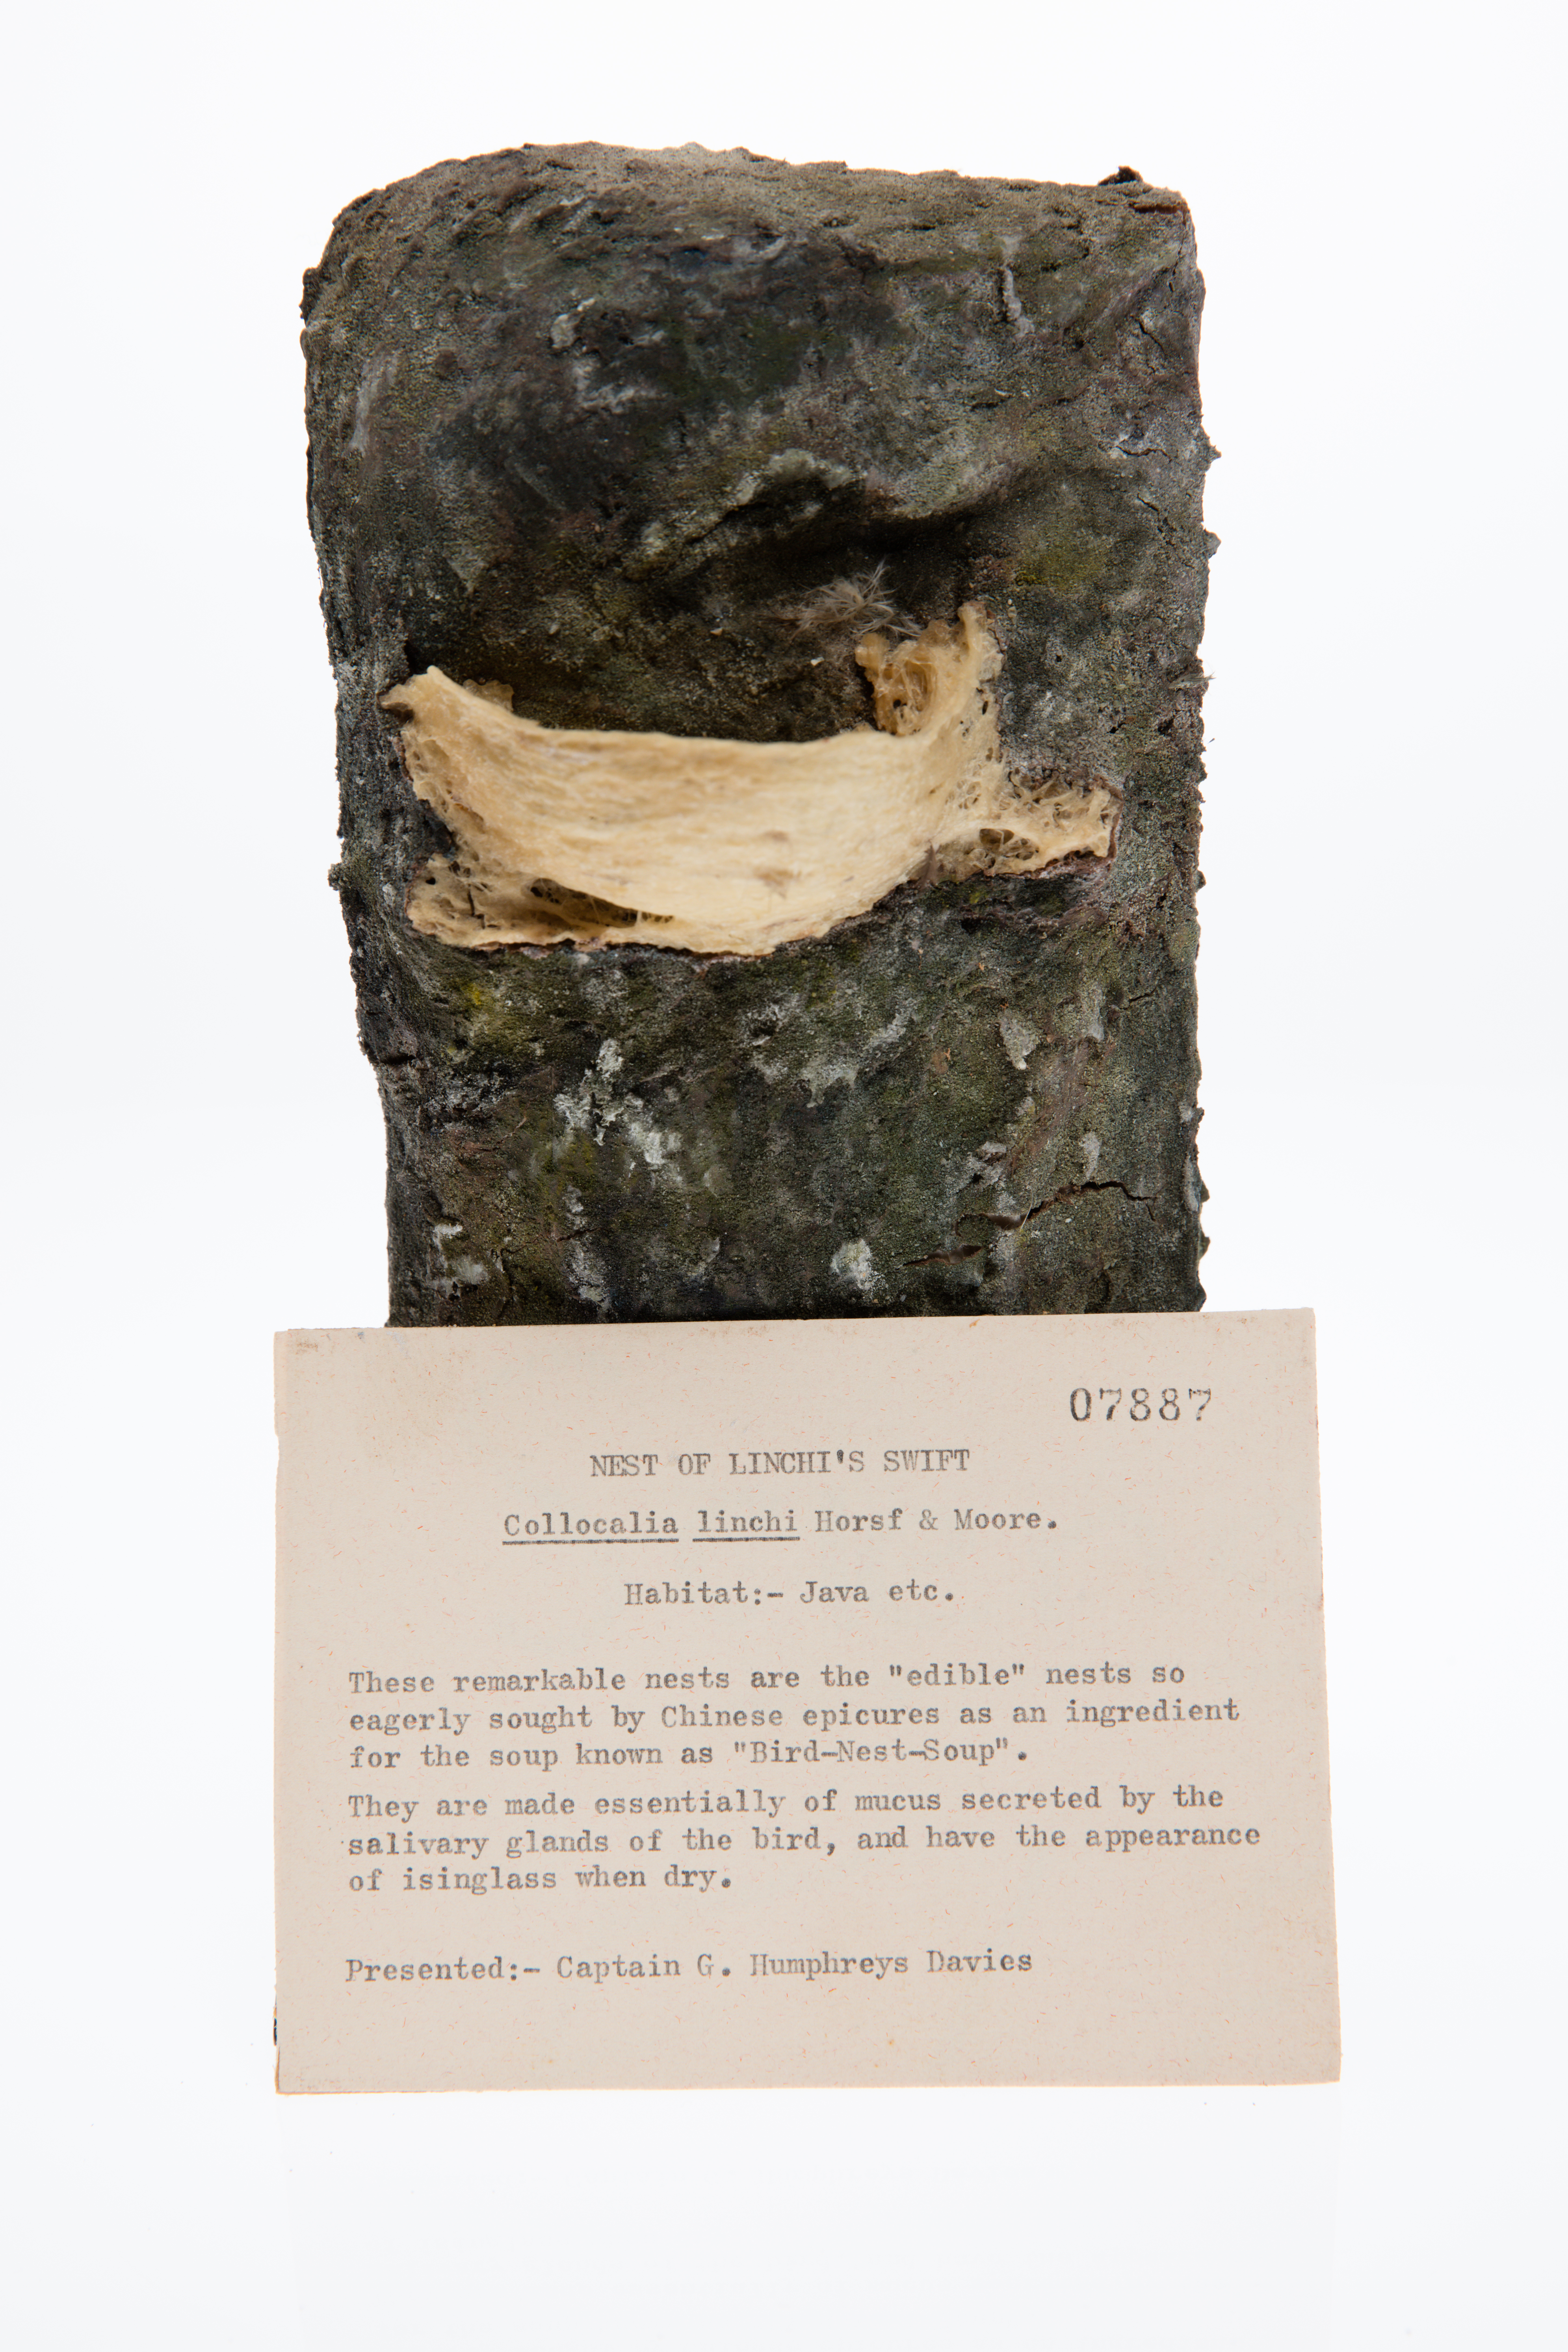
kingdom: Animalia
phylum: Chordata
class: Aves
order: Apodiformes
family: Apodidae
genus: Collocalia
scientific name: Collocalia linchi
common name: Cave swiftlet
